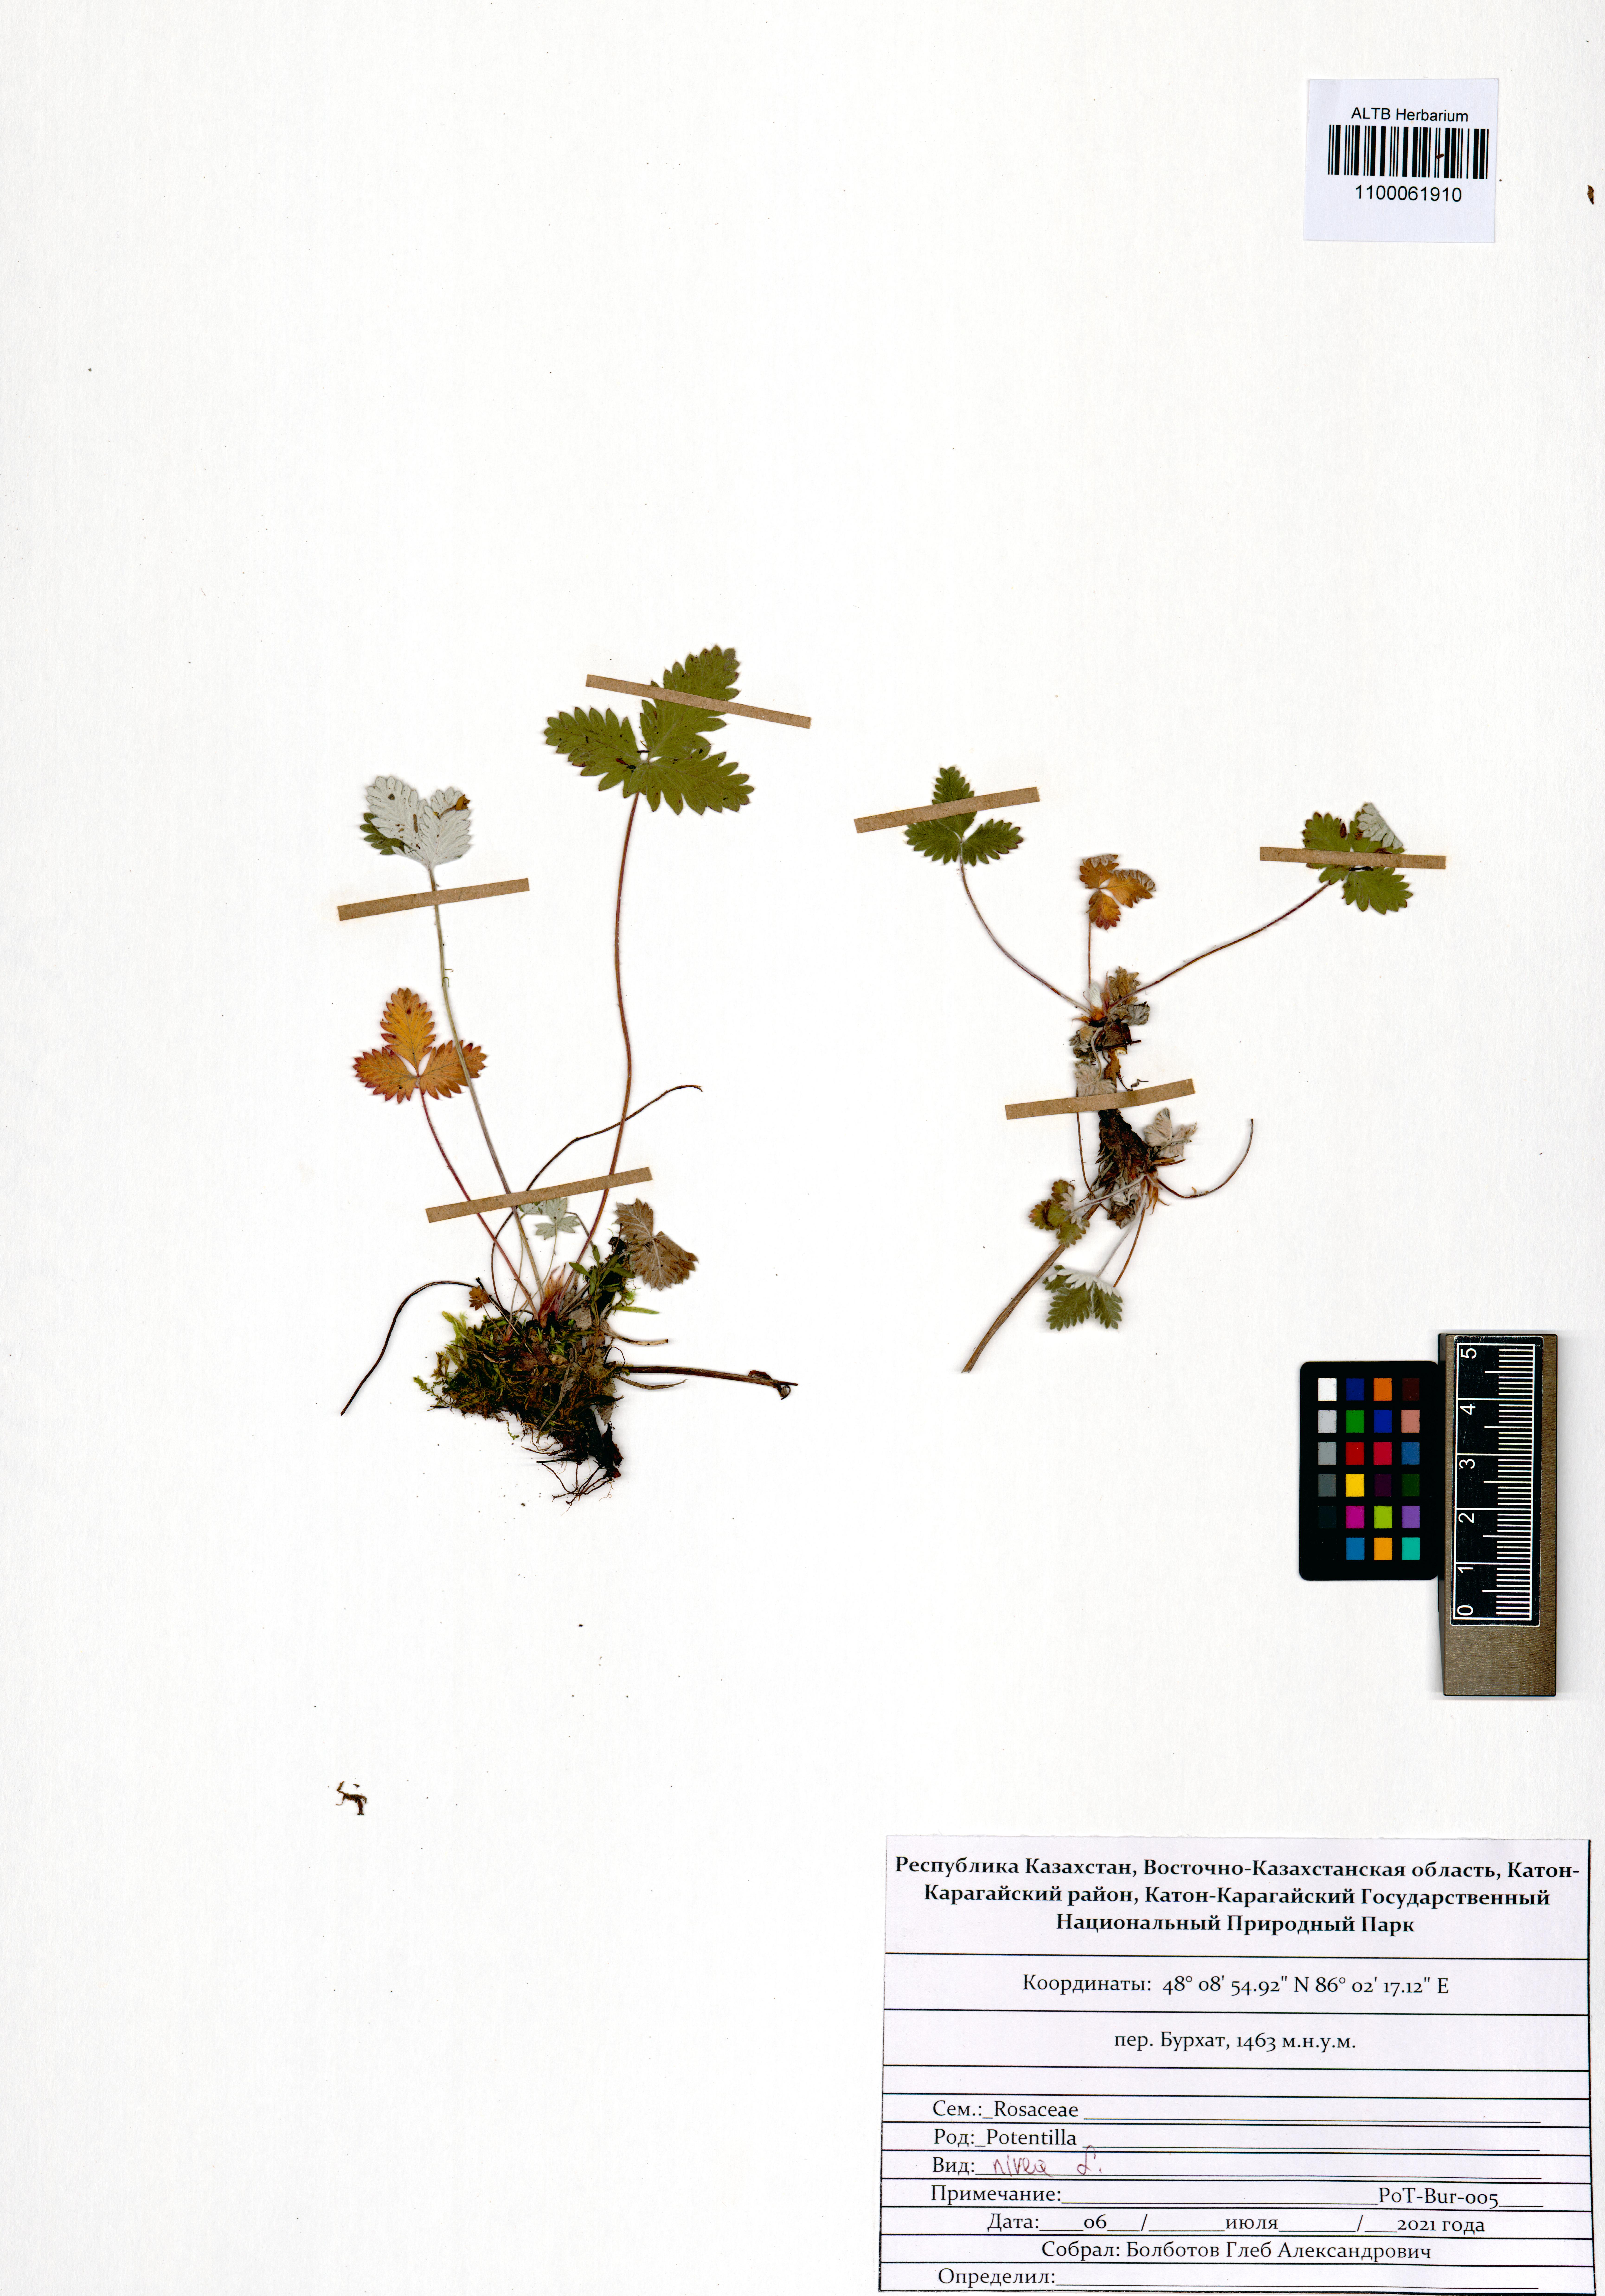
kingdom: Plantae
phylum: Tracheophyta
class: Magnoliopsida
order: Rosales
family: Rosaceae
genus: Potentilla
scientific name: Potentilla nivea
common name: Snow cinquefoil
